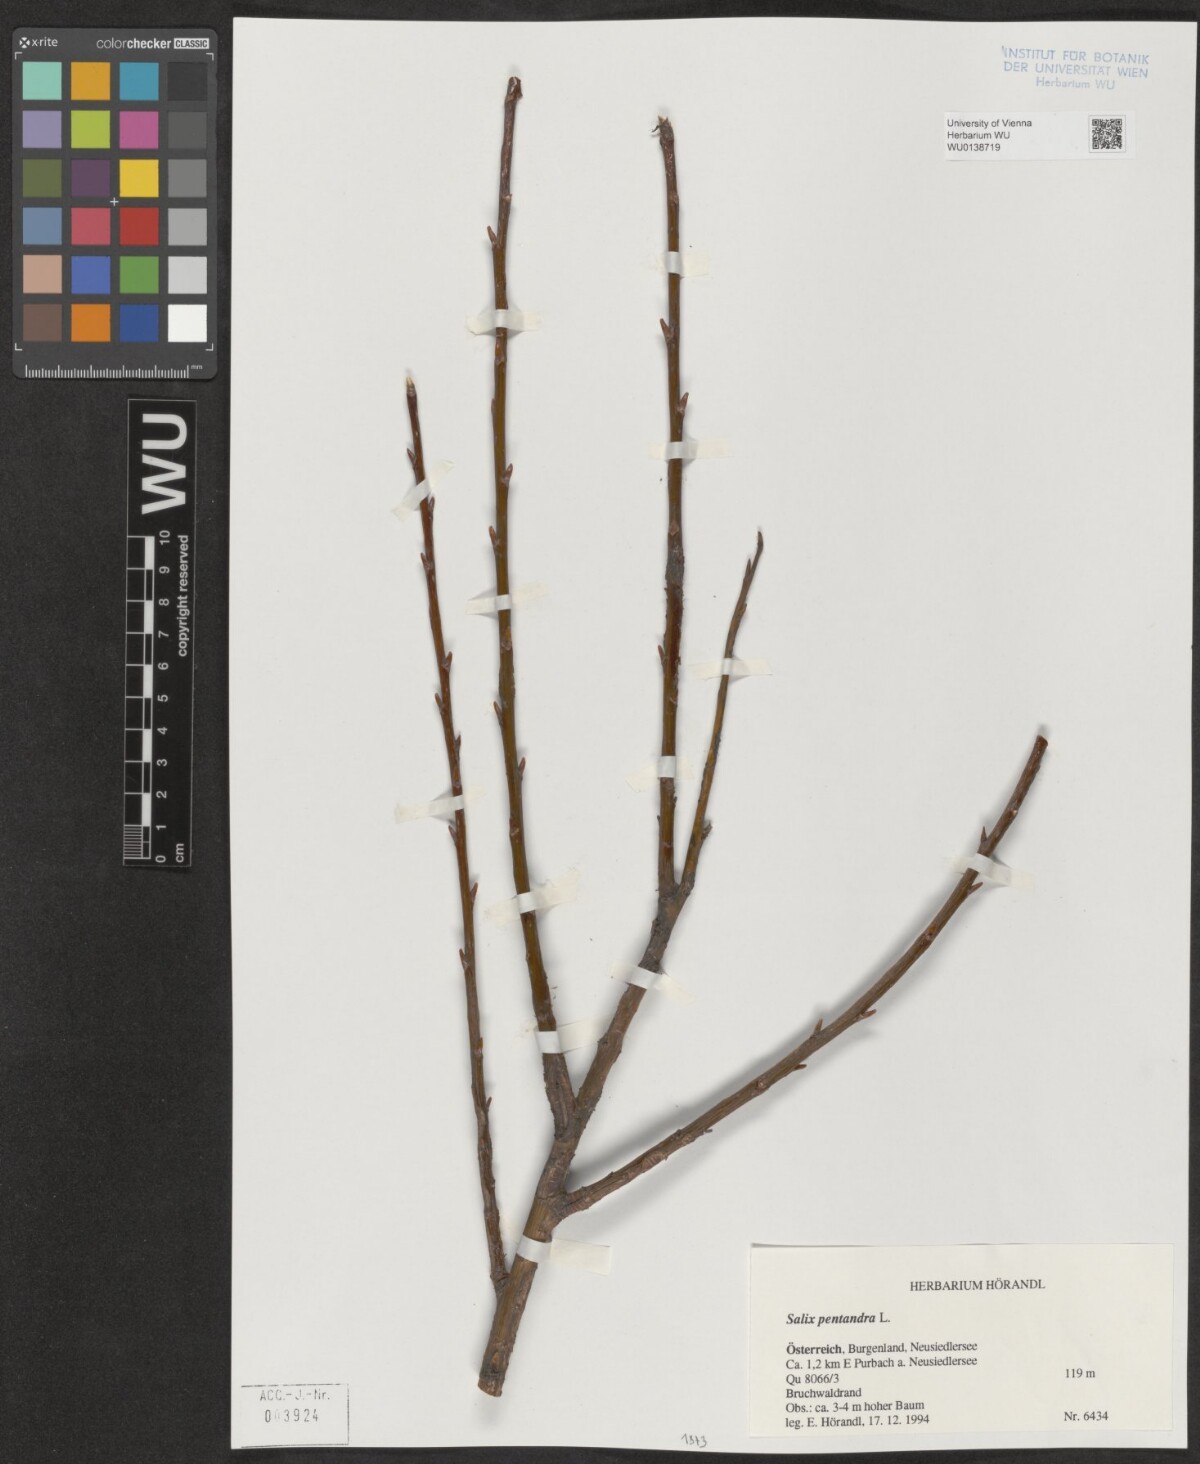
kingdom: Plantae
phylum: Tracheophyta
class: Magnoliopsida
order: Malpighiales
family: Salicaceae
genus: Salix
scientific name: Salix pentandra
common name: Bay willow
